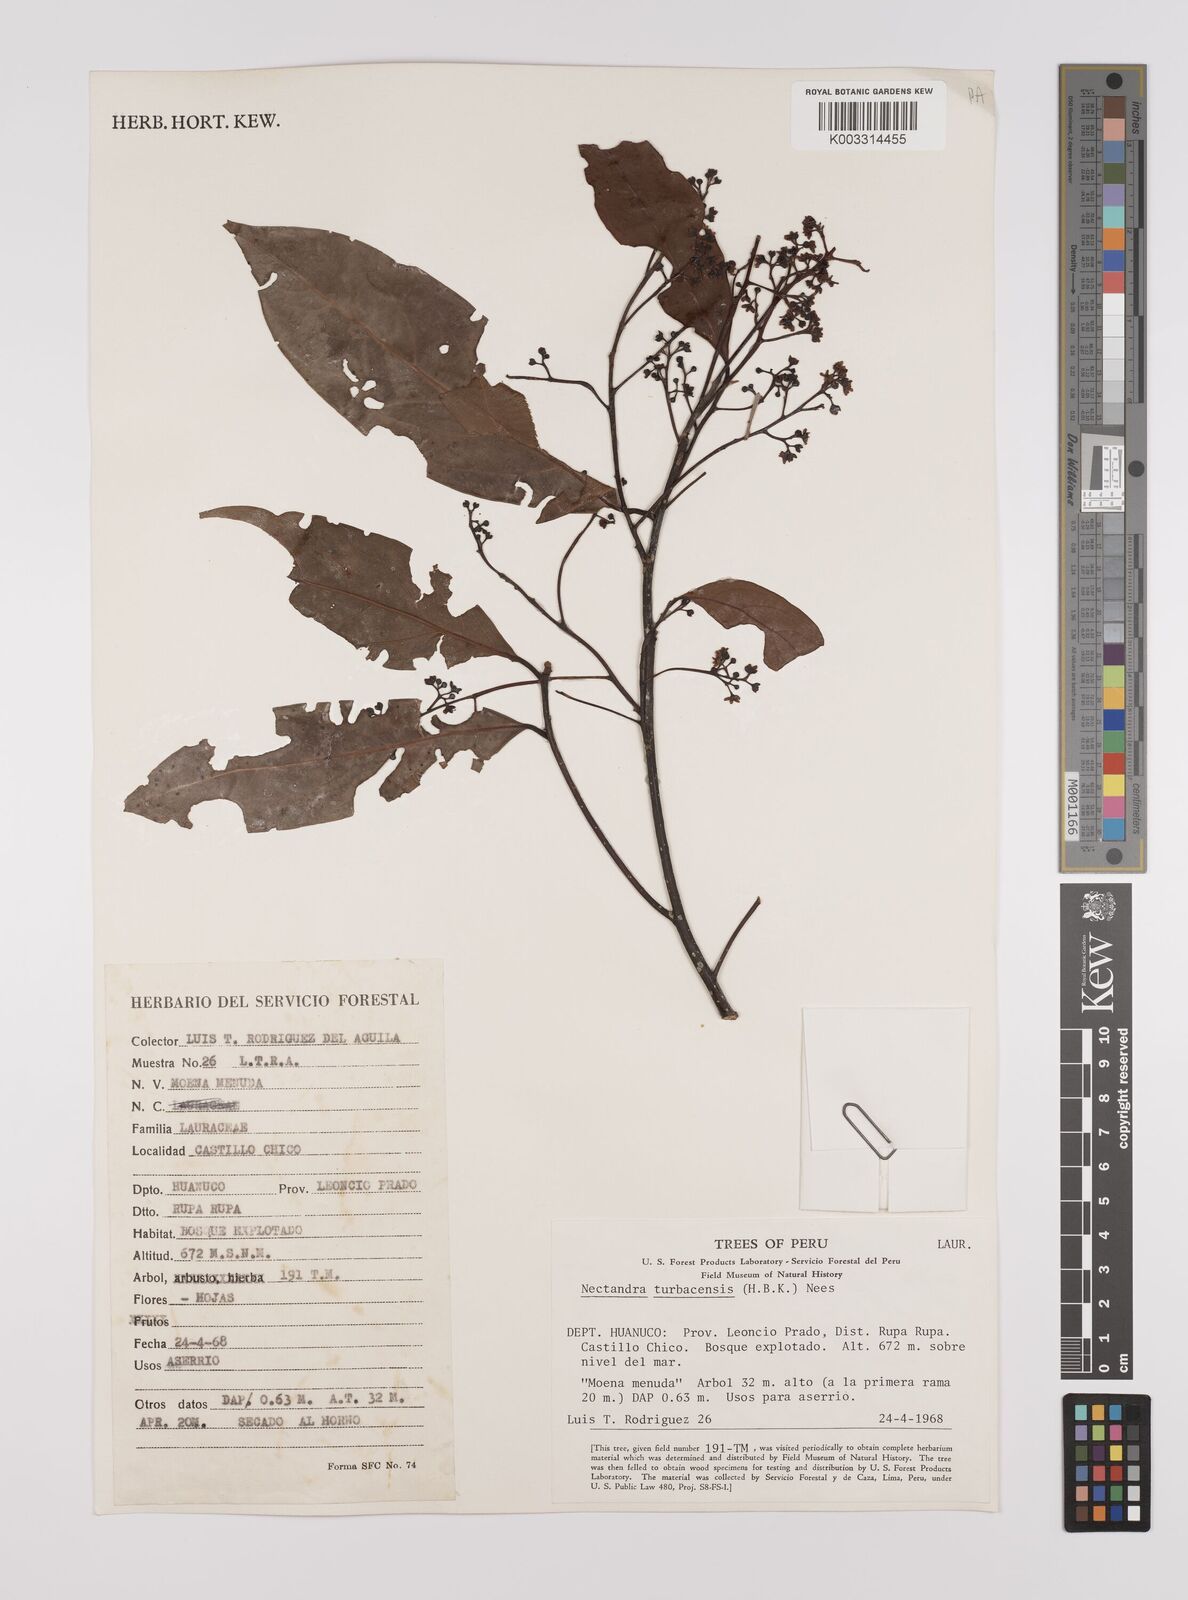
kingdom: Plantae
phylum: Tracheophyta
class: Magnoliopsida
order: Laurales
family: Lauraceae
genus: Nectandra
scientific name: Nectandra turbacensis
